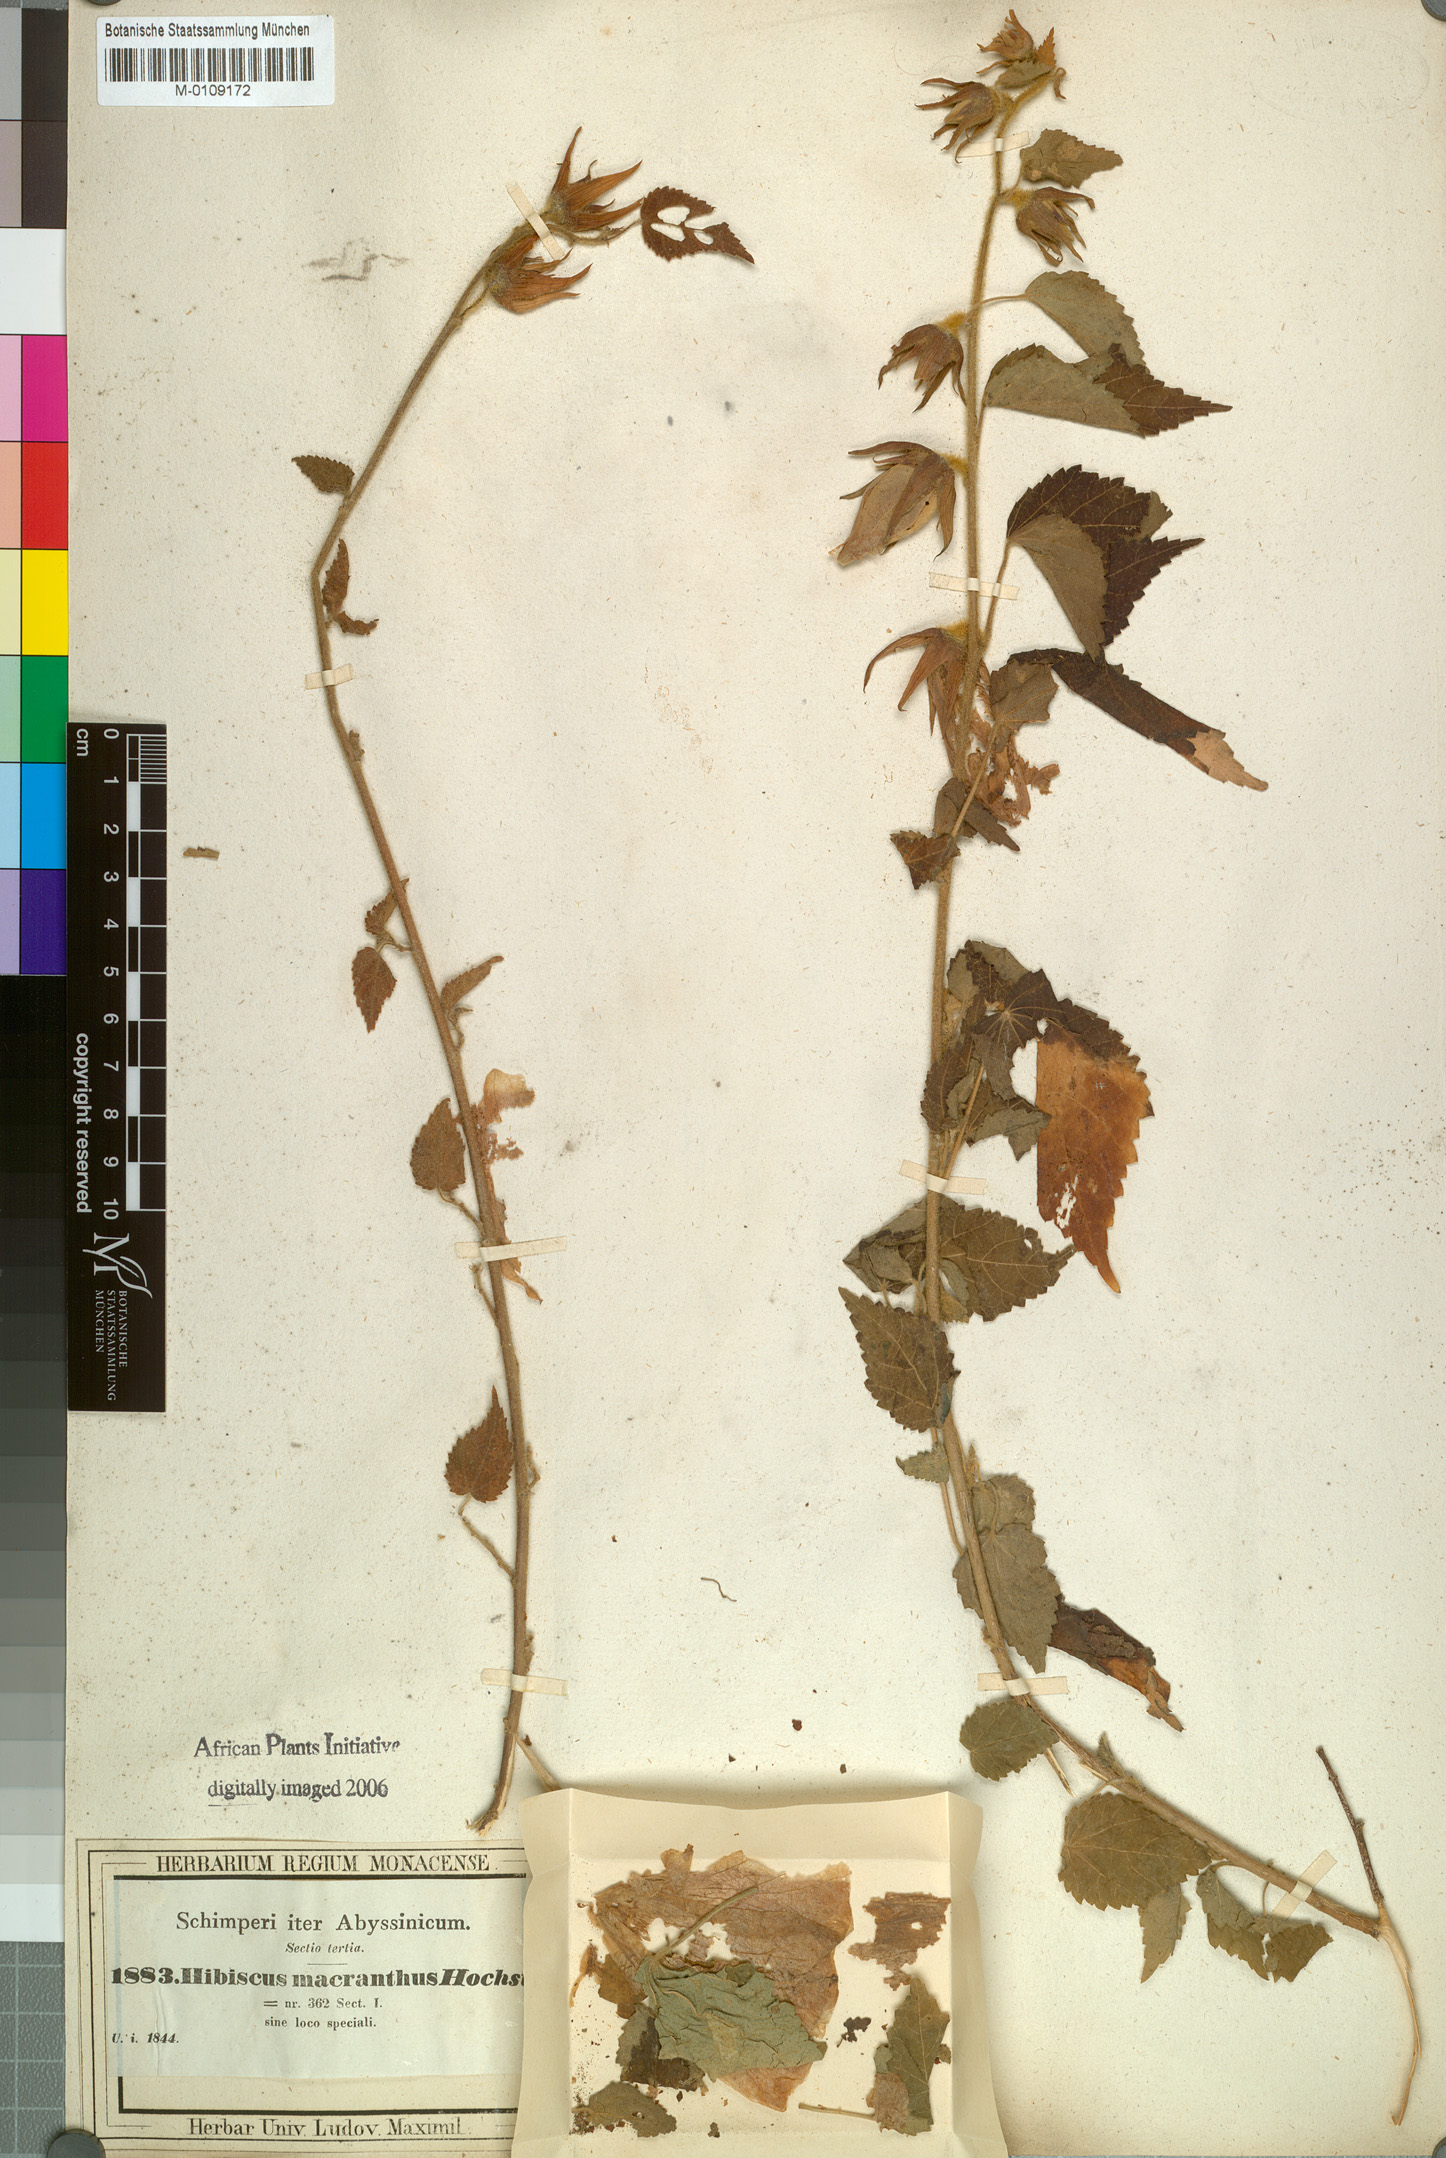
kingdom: Plantae
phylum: Tracheophyta
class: Magnoliopsida
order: Malvales
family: Malvaceae
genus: Hibiscus
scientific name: Hibiscus macranthus
